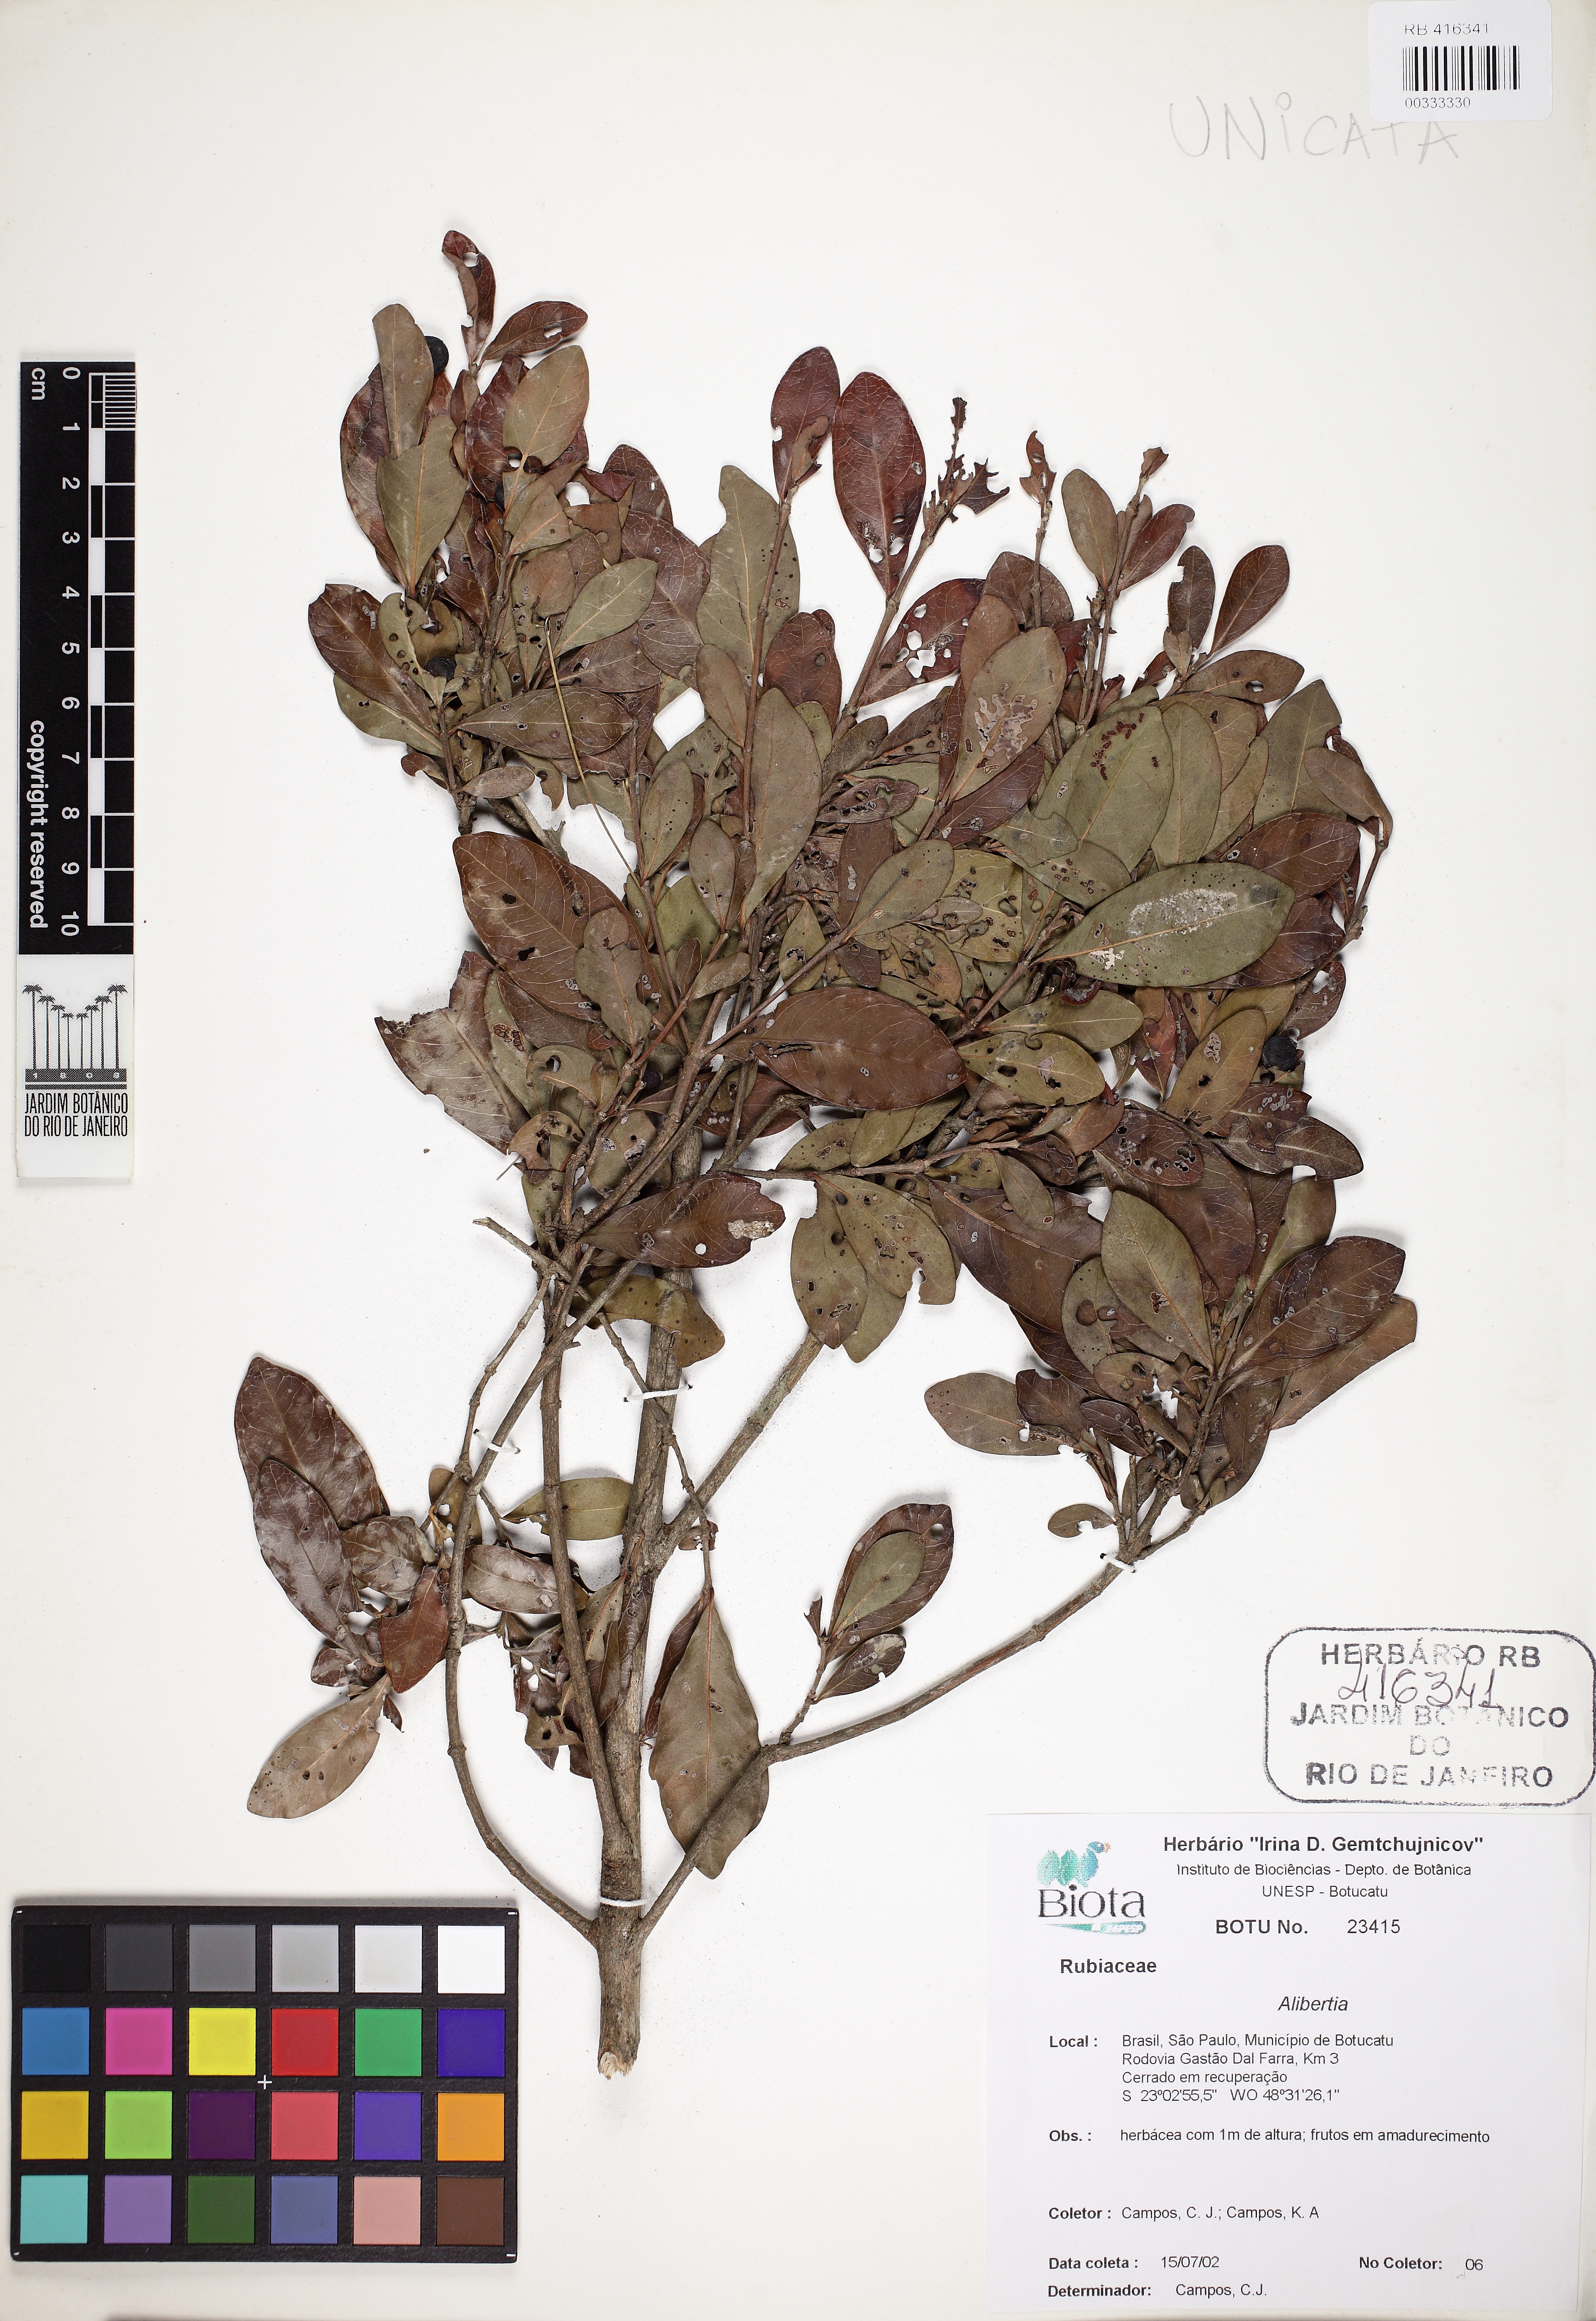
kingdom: Plantae
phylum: Tracheophyta
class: Magnoliopsida
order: Gentianales
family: Rubiaceae
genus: Cordiera
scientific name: Cordiera myrciifolia
